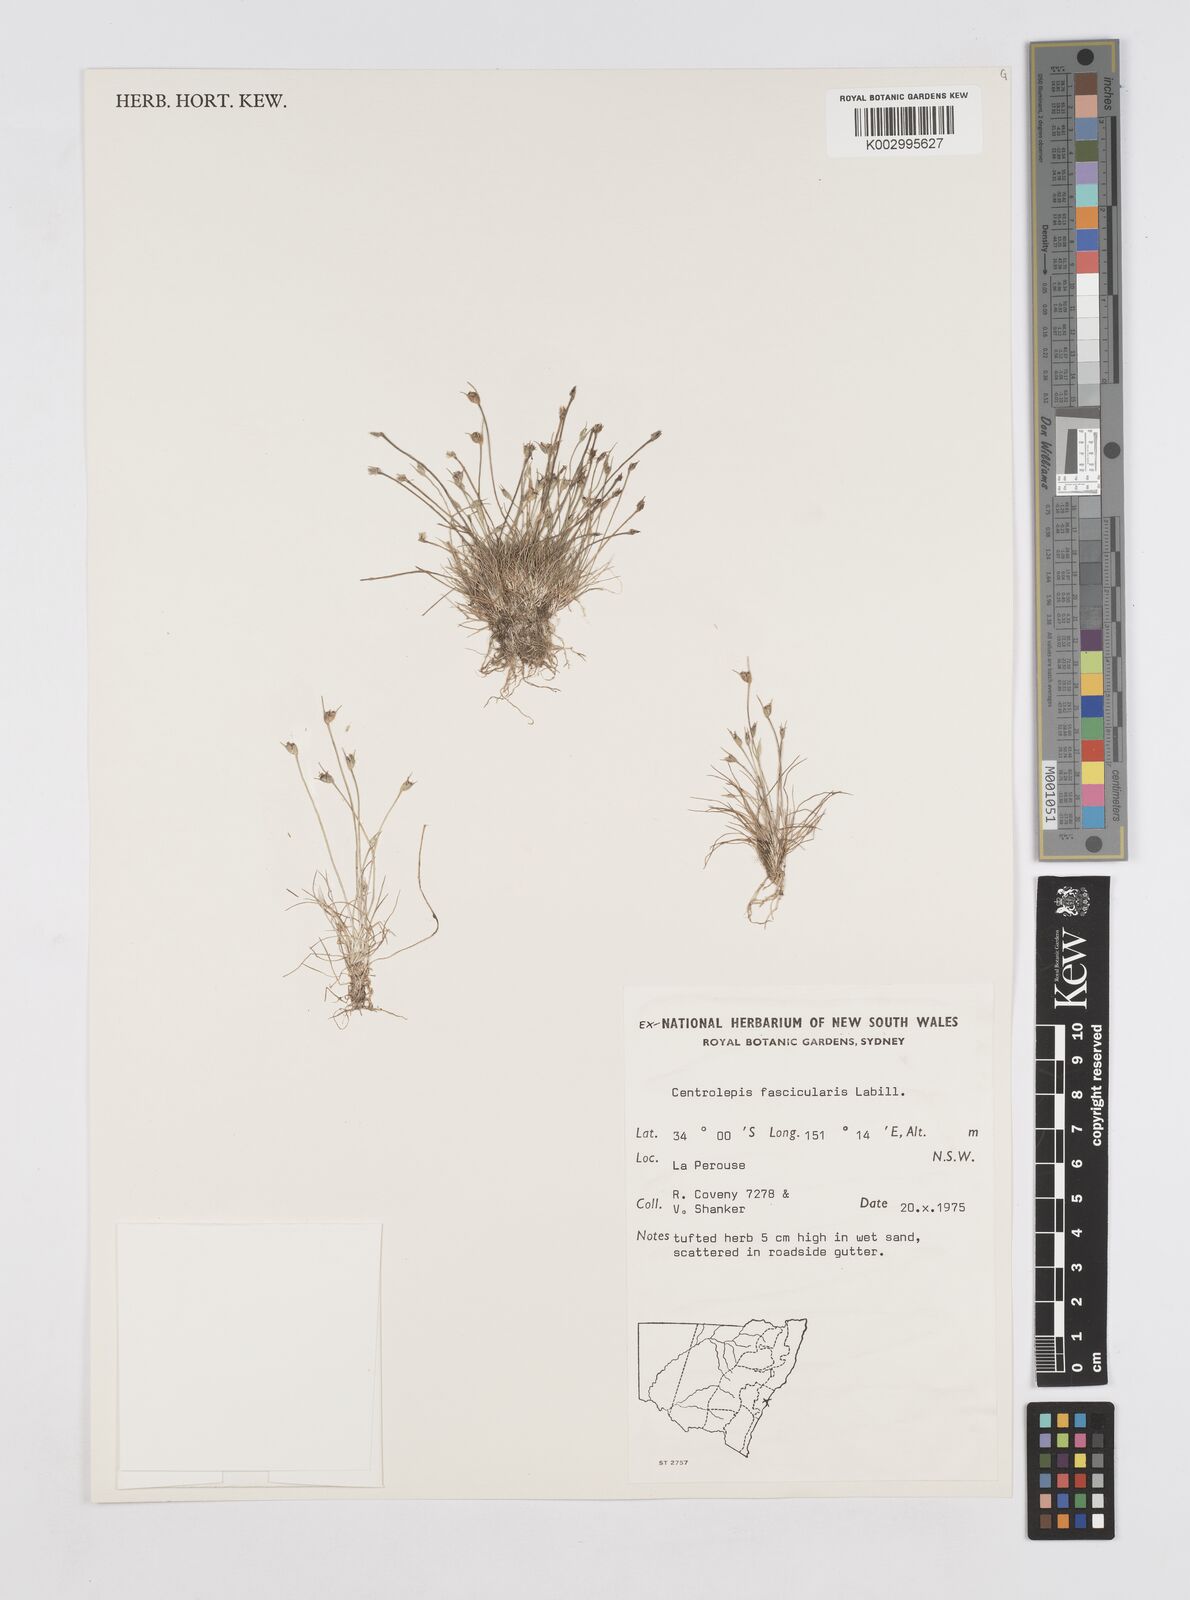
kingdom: Plantae
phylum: Tracheophyta
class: Liliopsida
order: Poales
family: Restionaceae
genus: Centrolepis
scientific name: Centrolepis fascicularis
